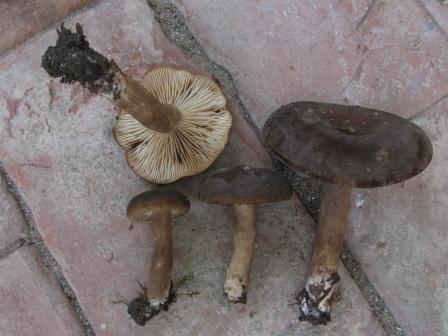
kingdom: Fungi
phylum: Basidiomycota
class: Agaricomycetes
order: Russulales
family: Russulaceae
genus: Lactarius
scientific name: Lactarius romagnesii
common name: fjernbladet mælkehat
